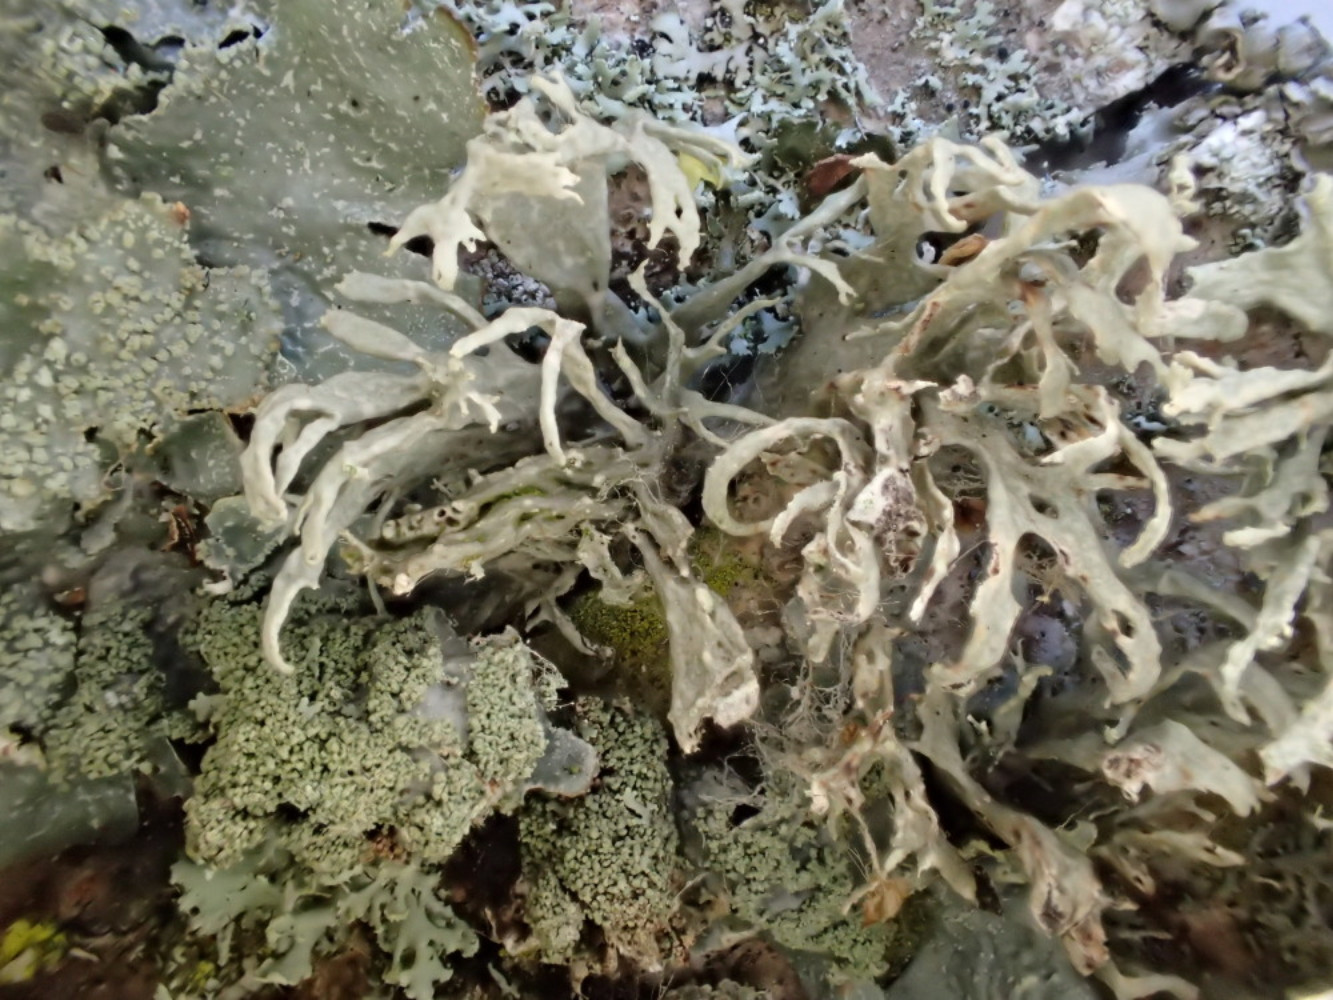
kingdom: Fungi
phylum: Ascomycota
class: Lecanoromycetes
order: Lecanorales
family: Ramalinaceae
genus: Ramalina
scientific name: Ramalina farinacea
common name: melet grenlav
